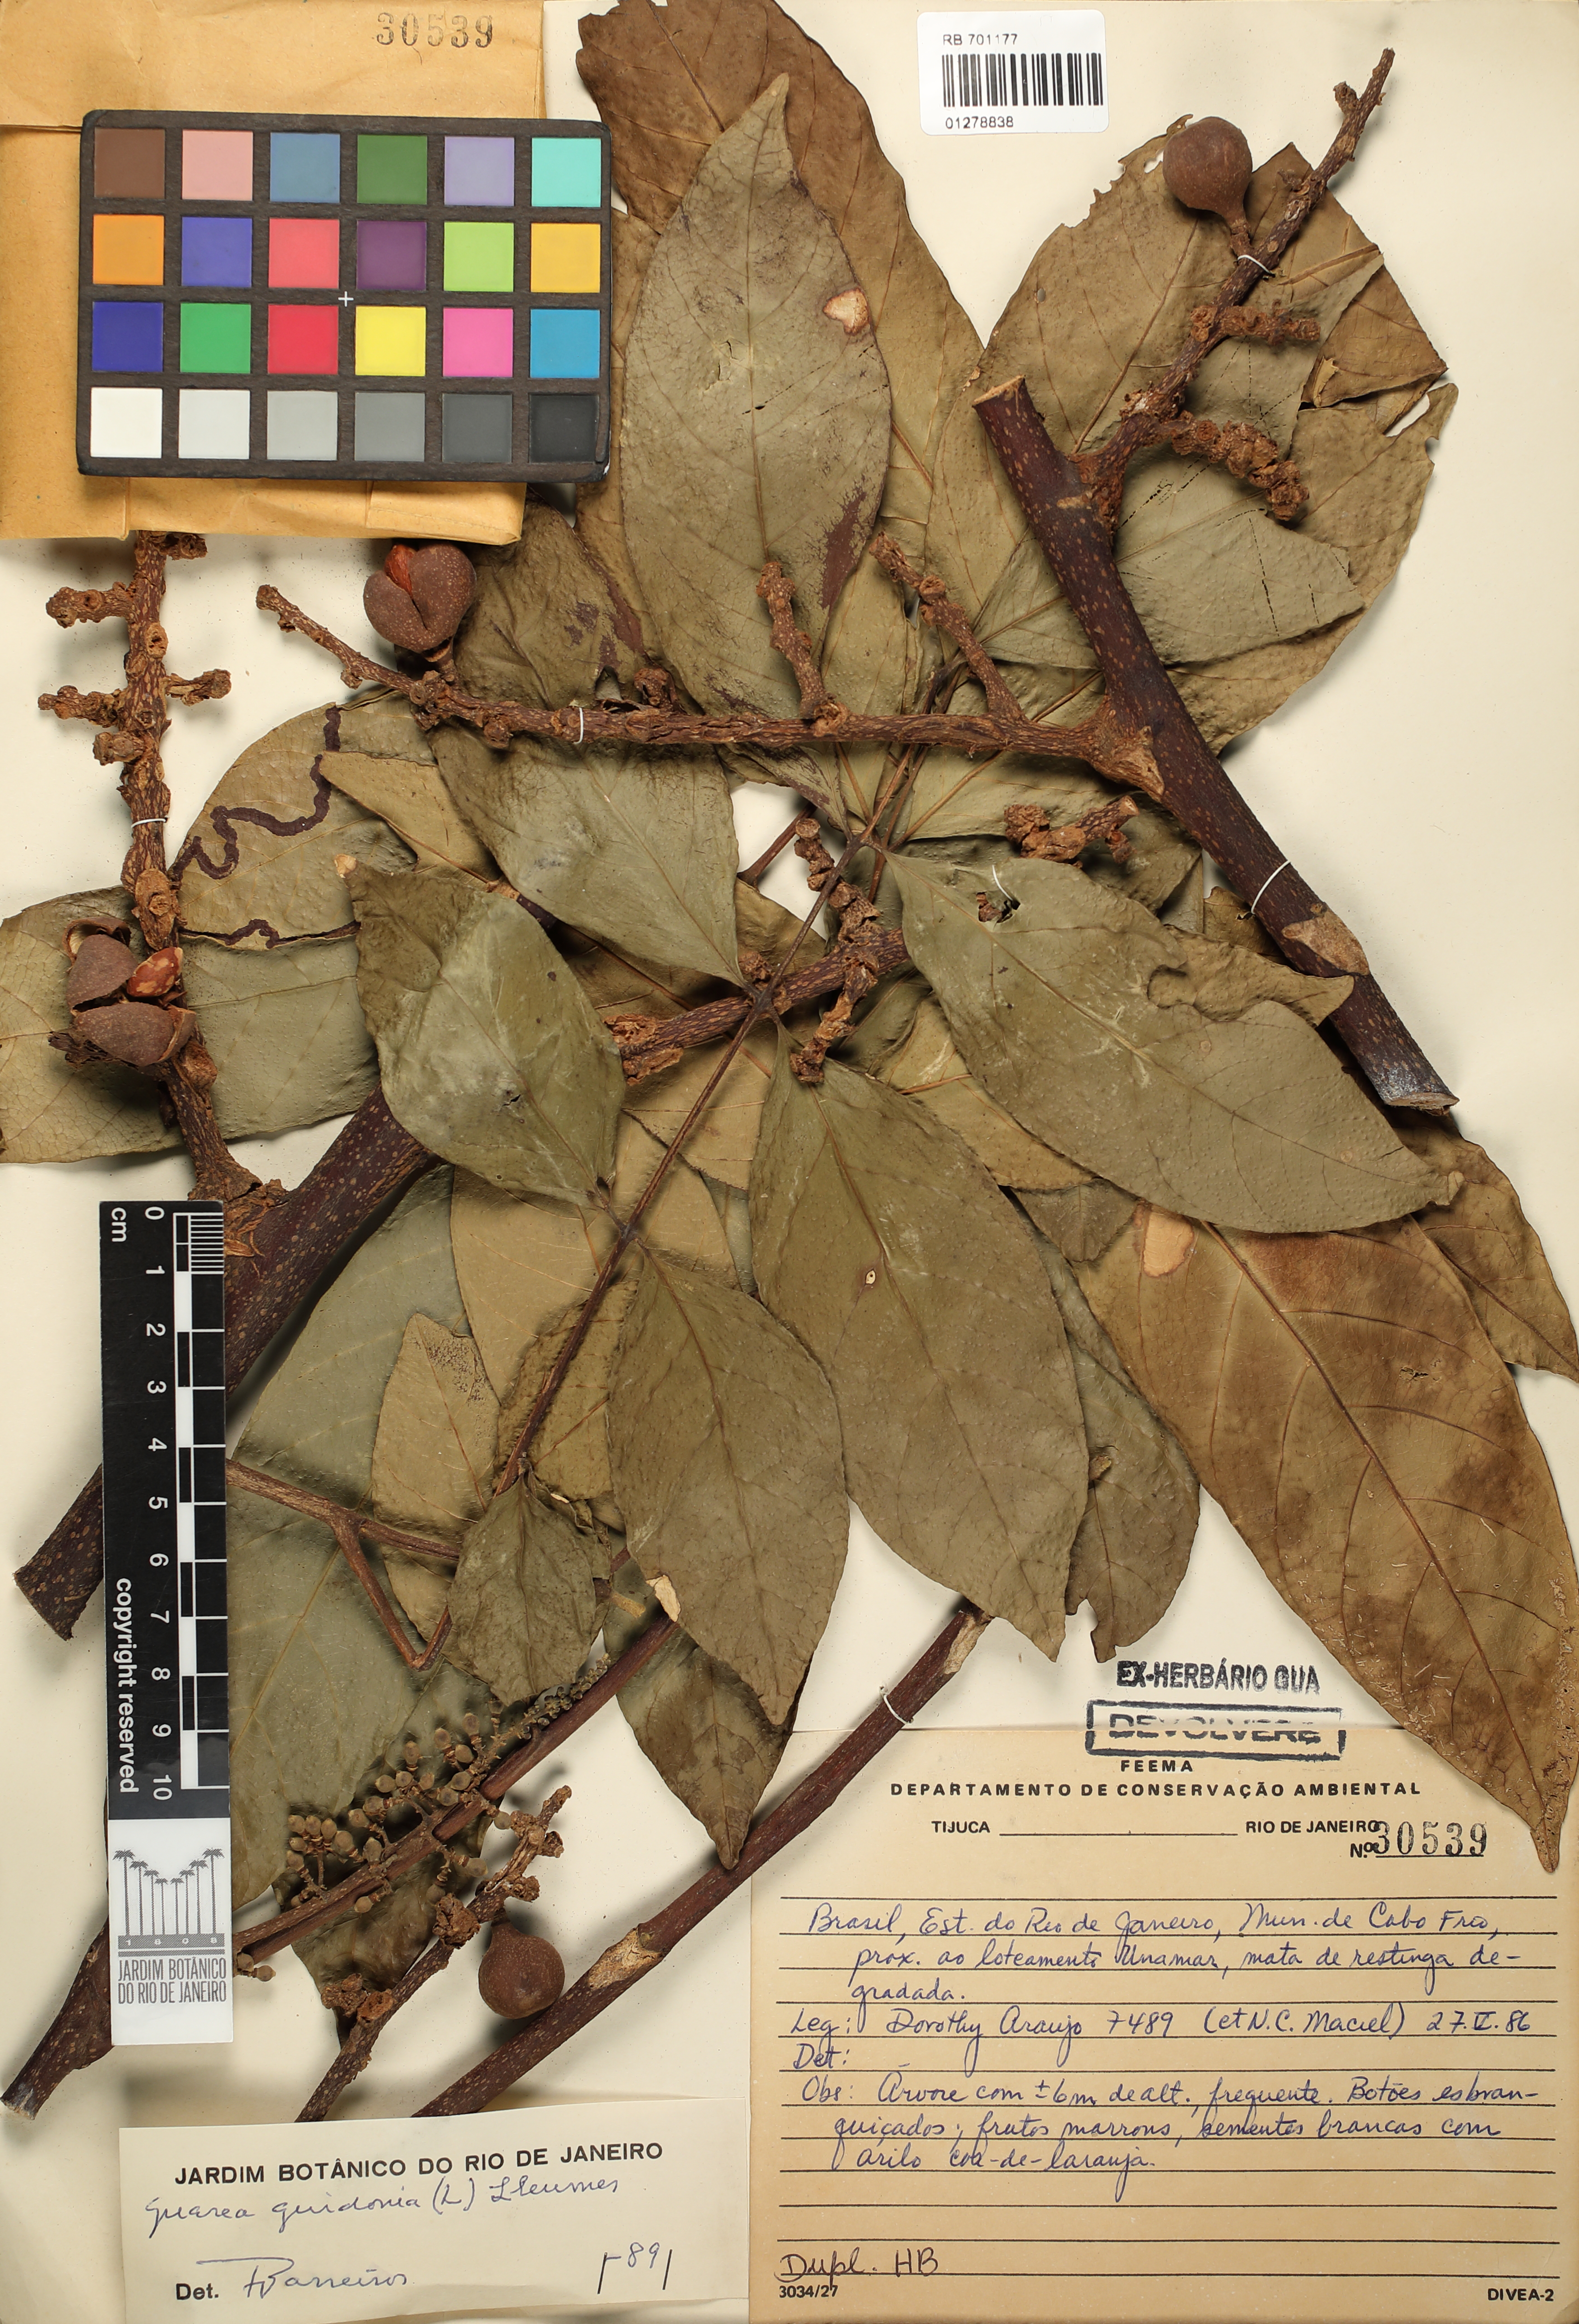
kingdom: Plantae
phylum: Tracheophyta
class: Magnoliopsida
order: Sapindales
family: Meliaceae
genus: Guarea
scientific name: Guarea guidonia
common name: American muskwood
